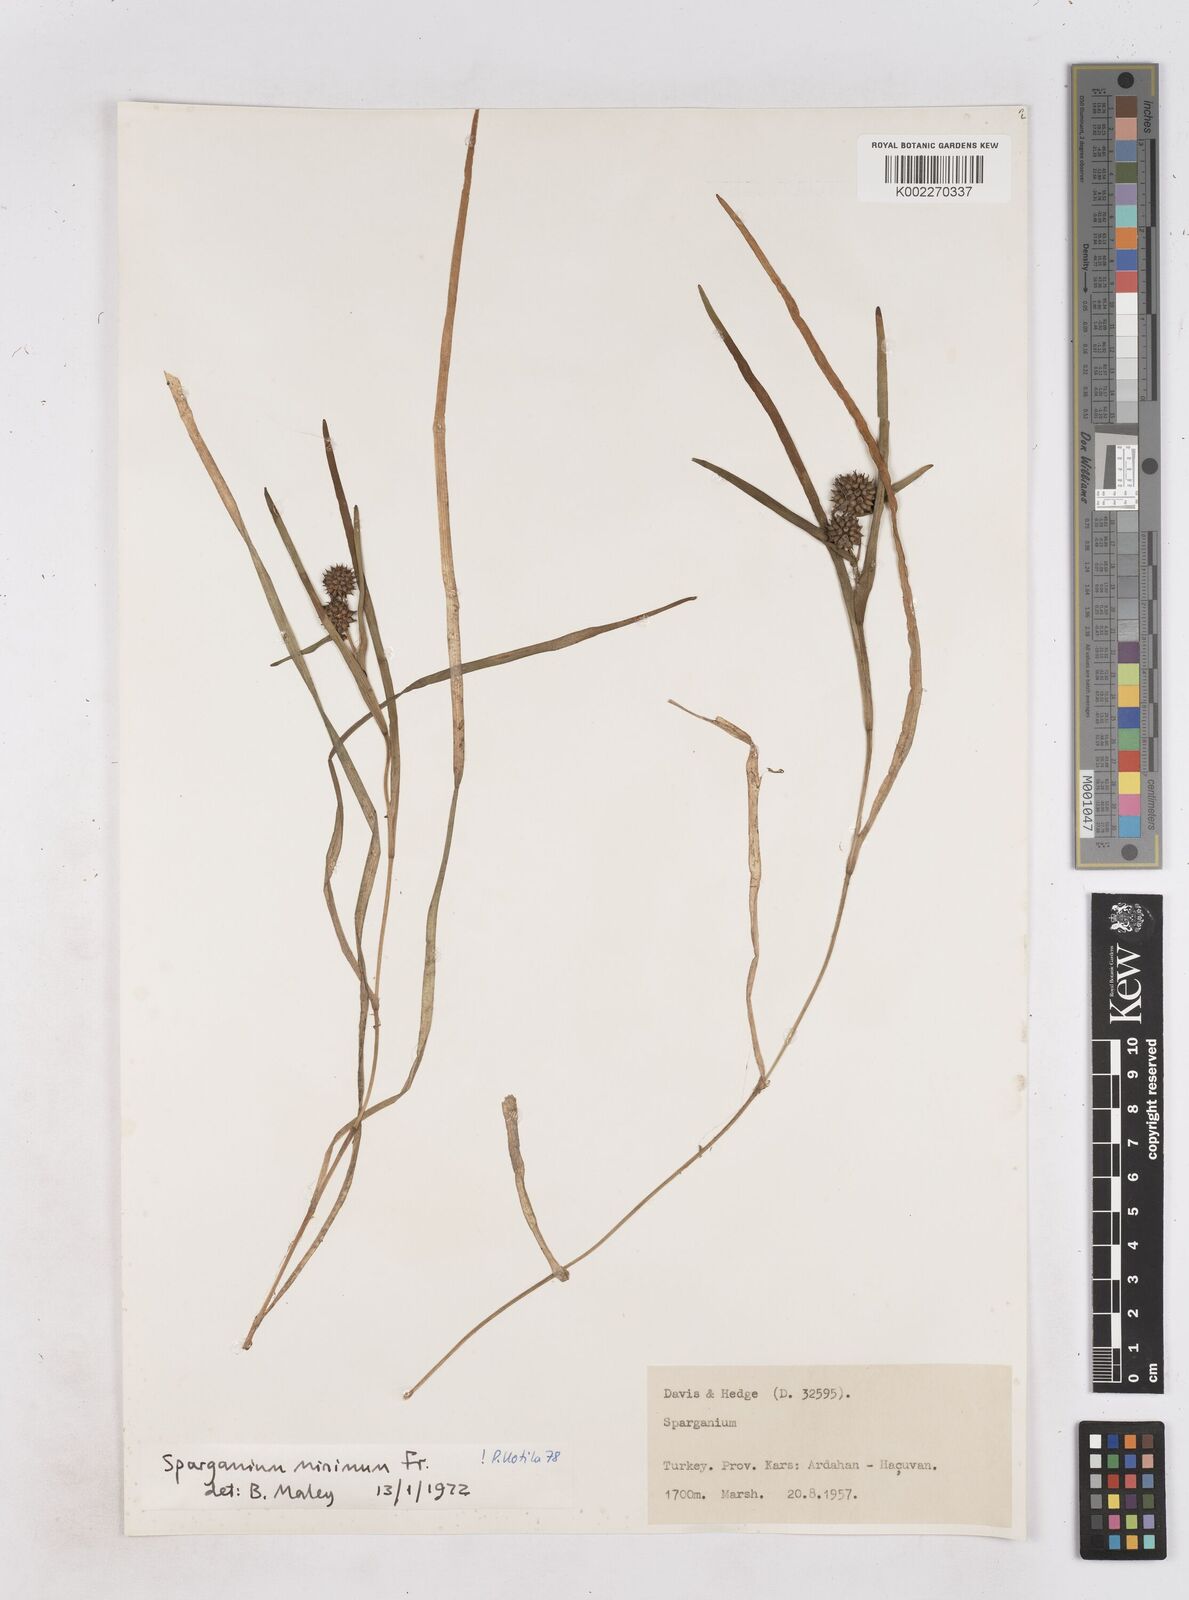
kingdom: Plantae
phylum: Tracheophyta
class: Liliopsida
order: Poales
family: Typhaceae
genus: Sparganium
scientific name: Sparganium natans
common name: Least bur-reed
